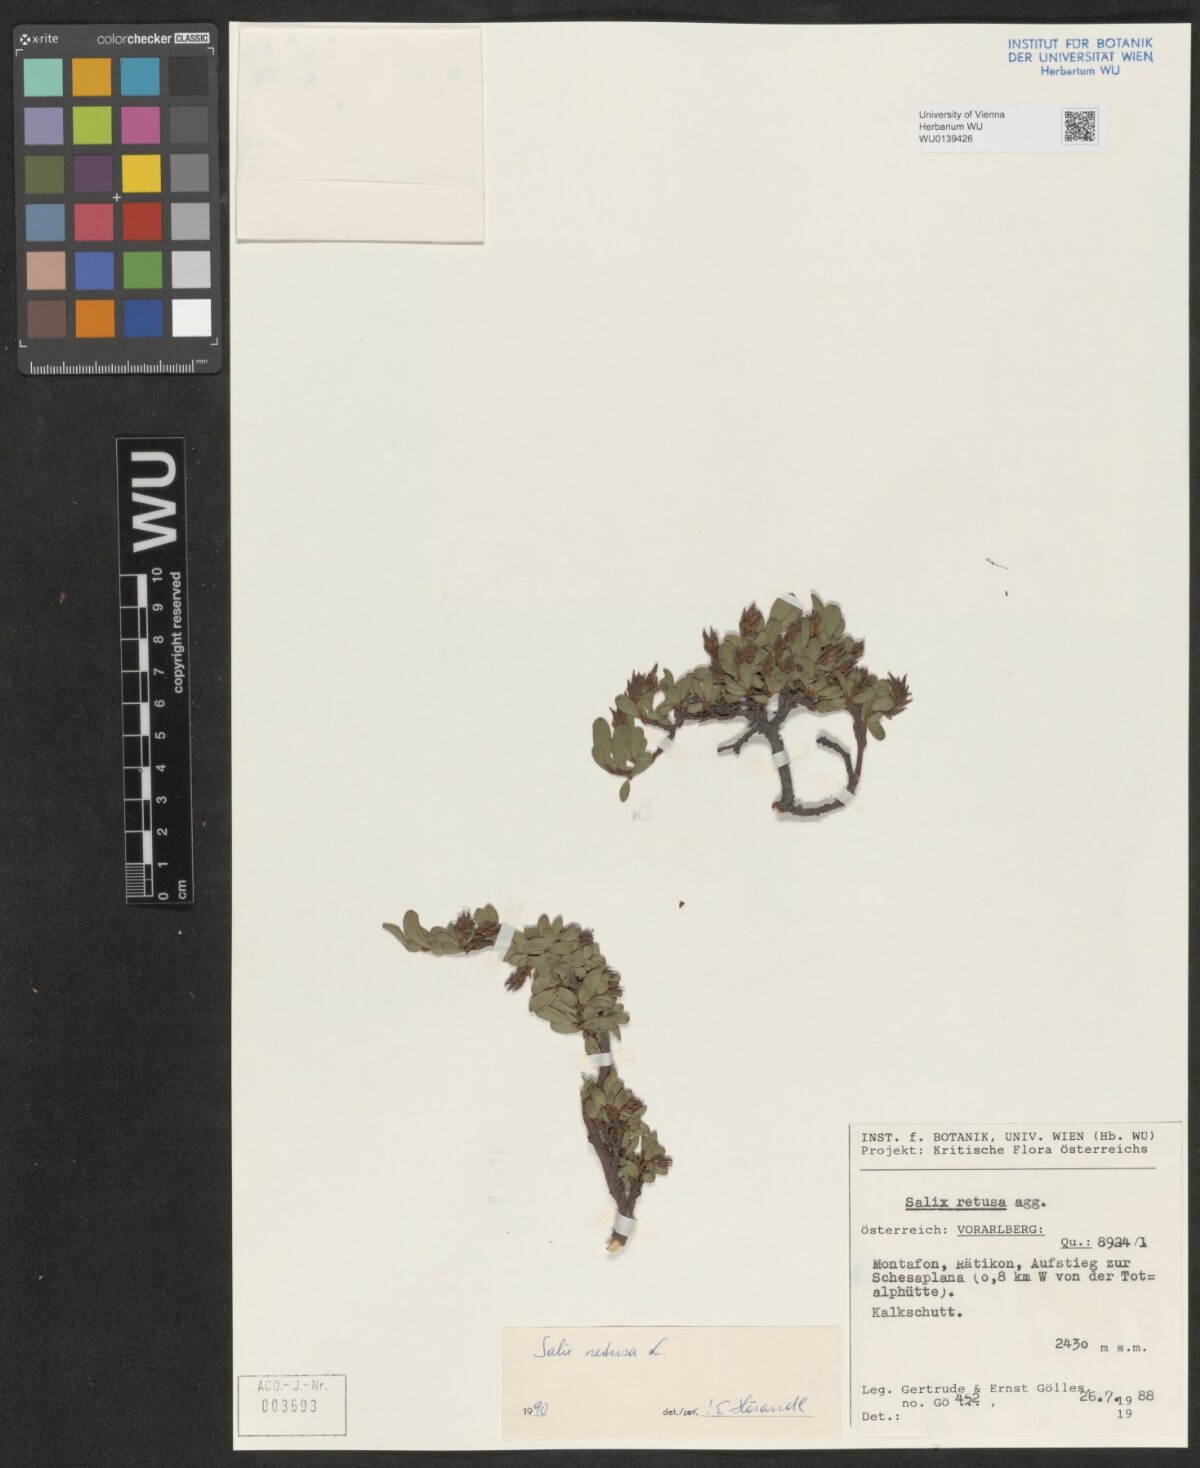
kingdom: Plantae
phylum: Tracheophyta
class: Magnoliopsida
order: Malpighiales
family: Salicaceae
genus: Salix
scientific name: Salix retusa
